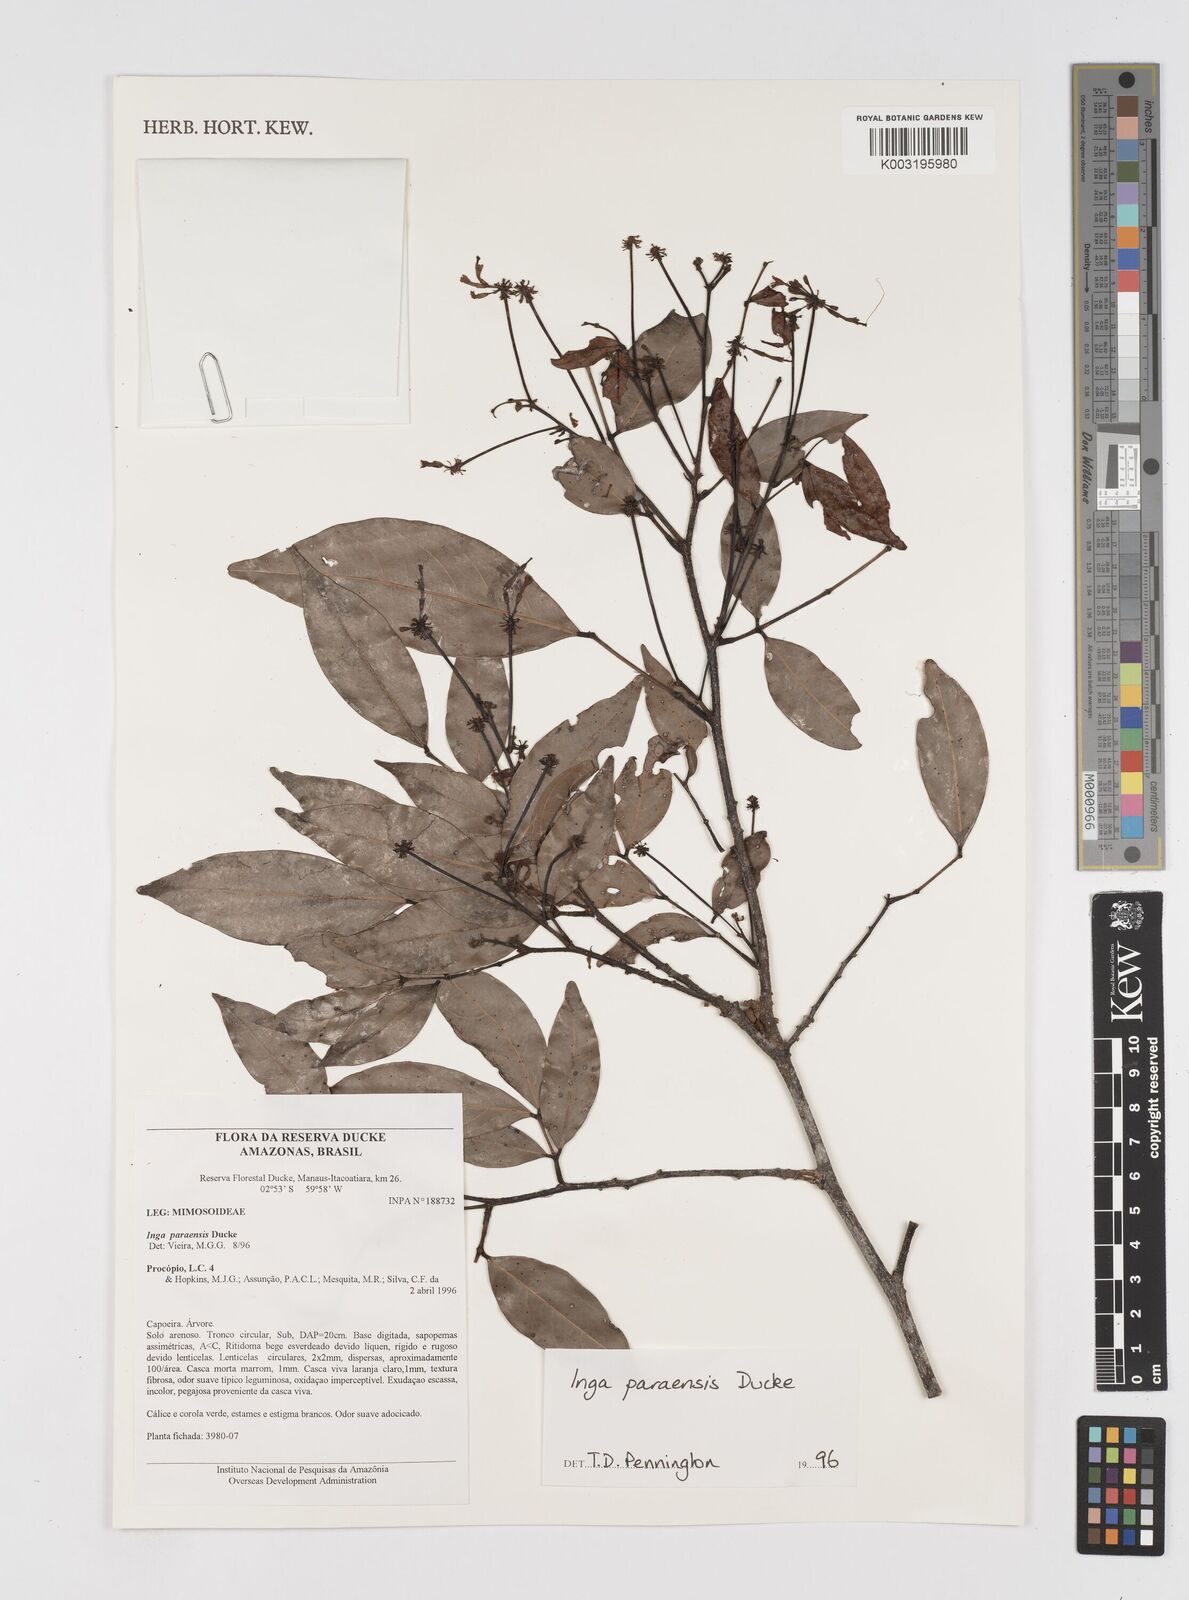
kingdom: Plantae
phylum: Tracheophyta
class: Magnoliopsida
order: Fabales
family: Fabaceae
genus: Inga
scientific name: Inga paraensis
